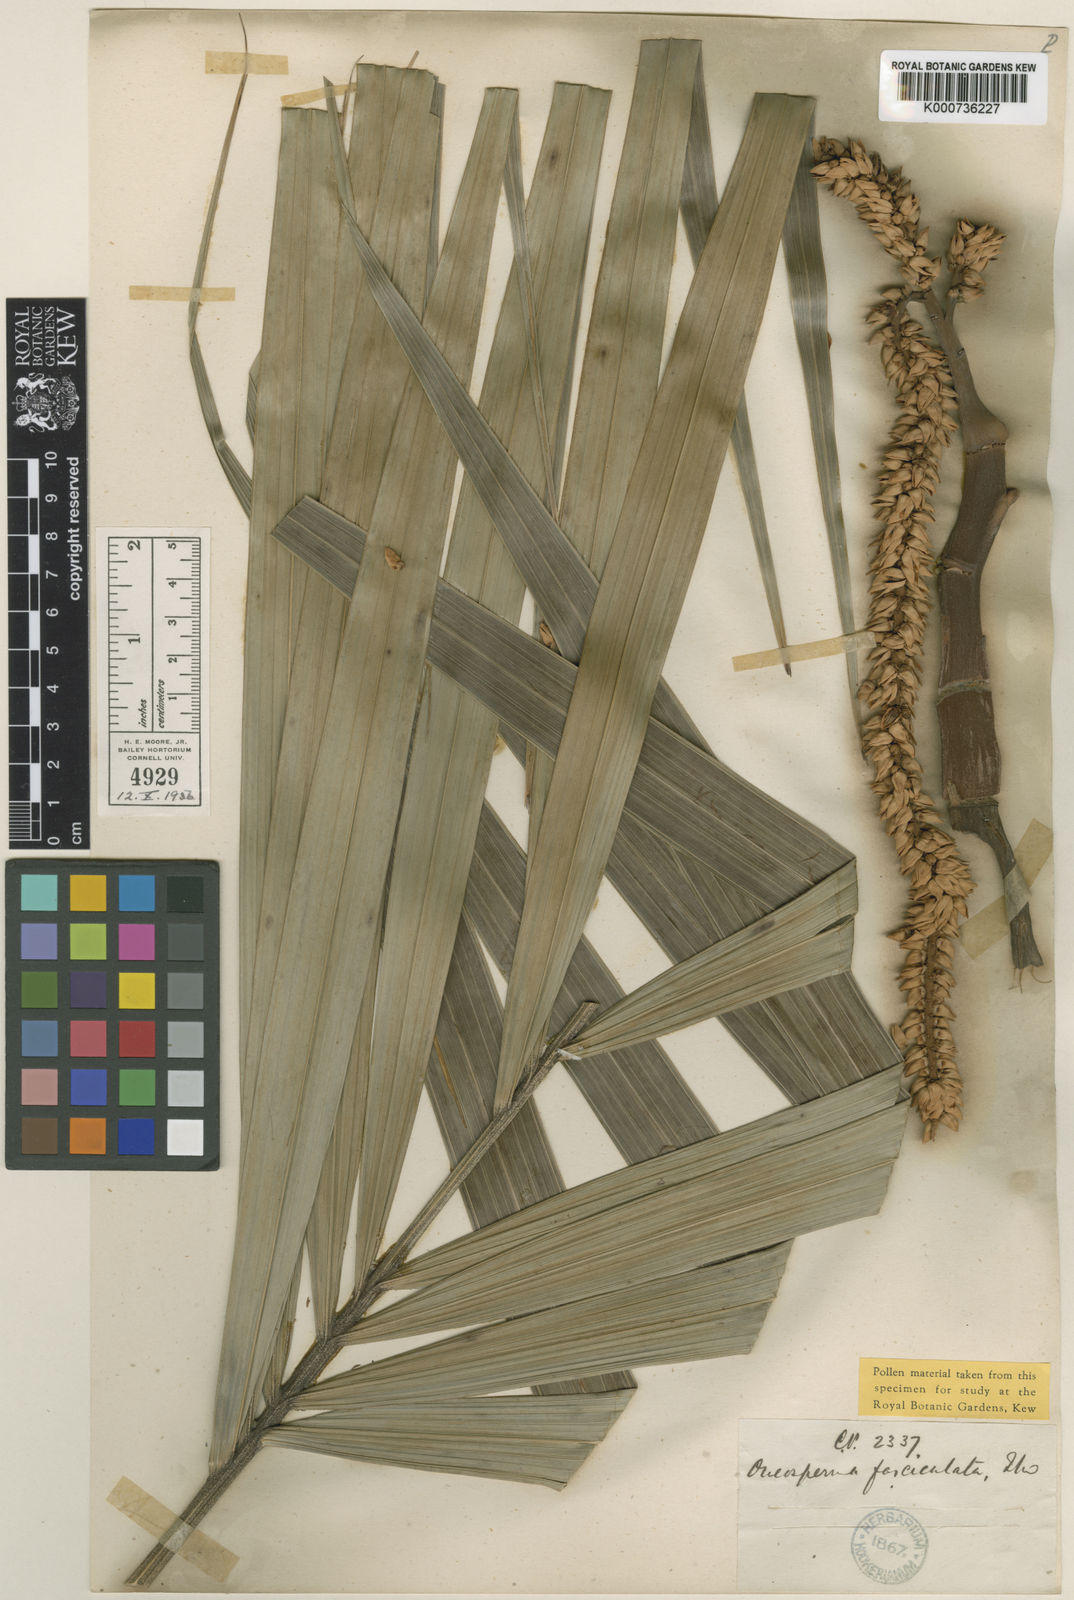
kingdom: Plantae
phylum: Tracheophyta
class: Liliopsida
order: Arecales
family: Arecaceae
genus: Oncosperma
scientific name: Oncosperma fasciculatum
